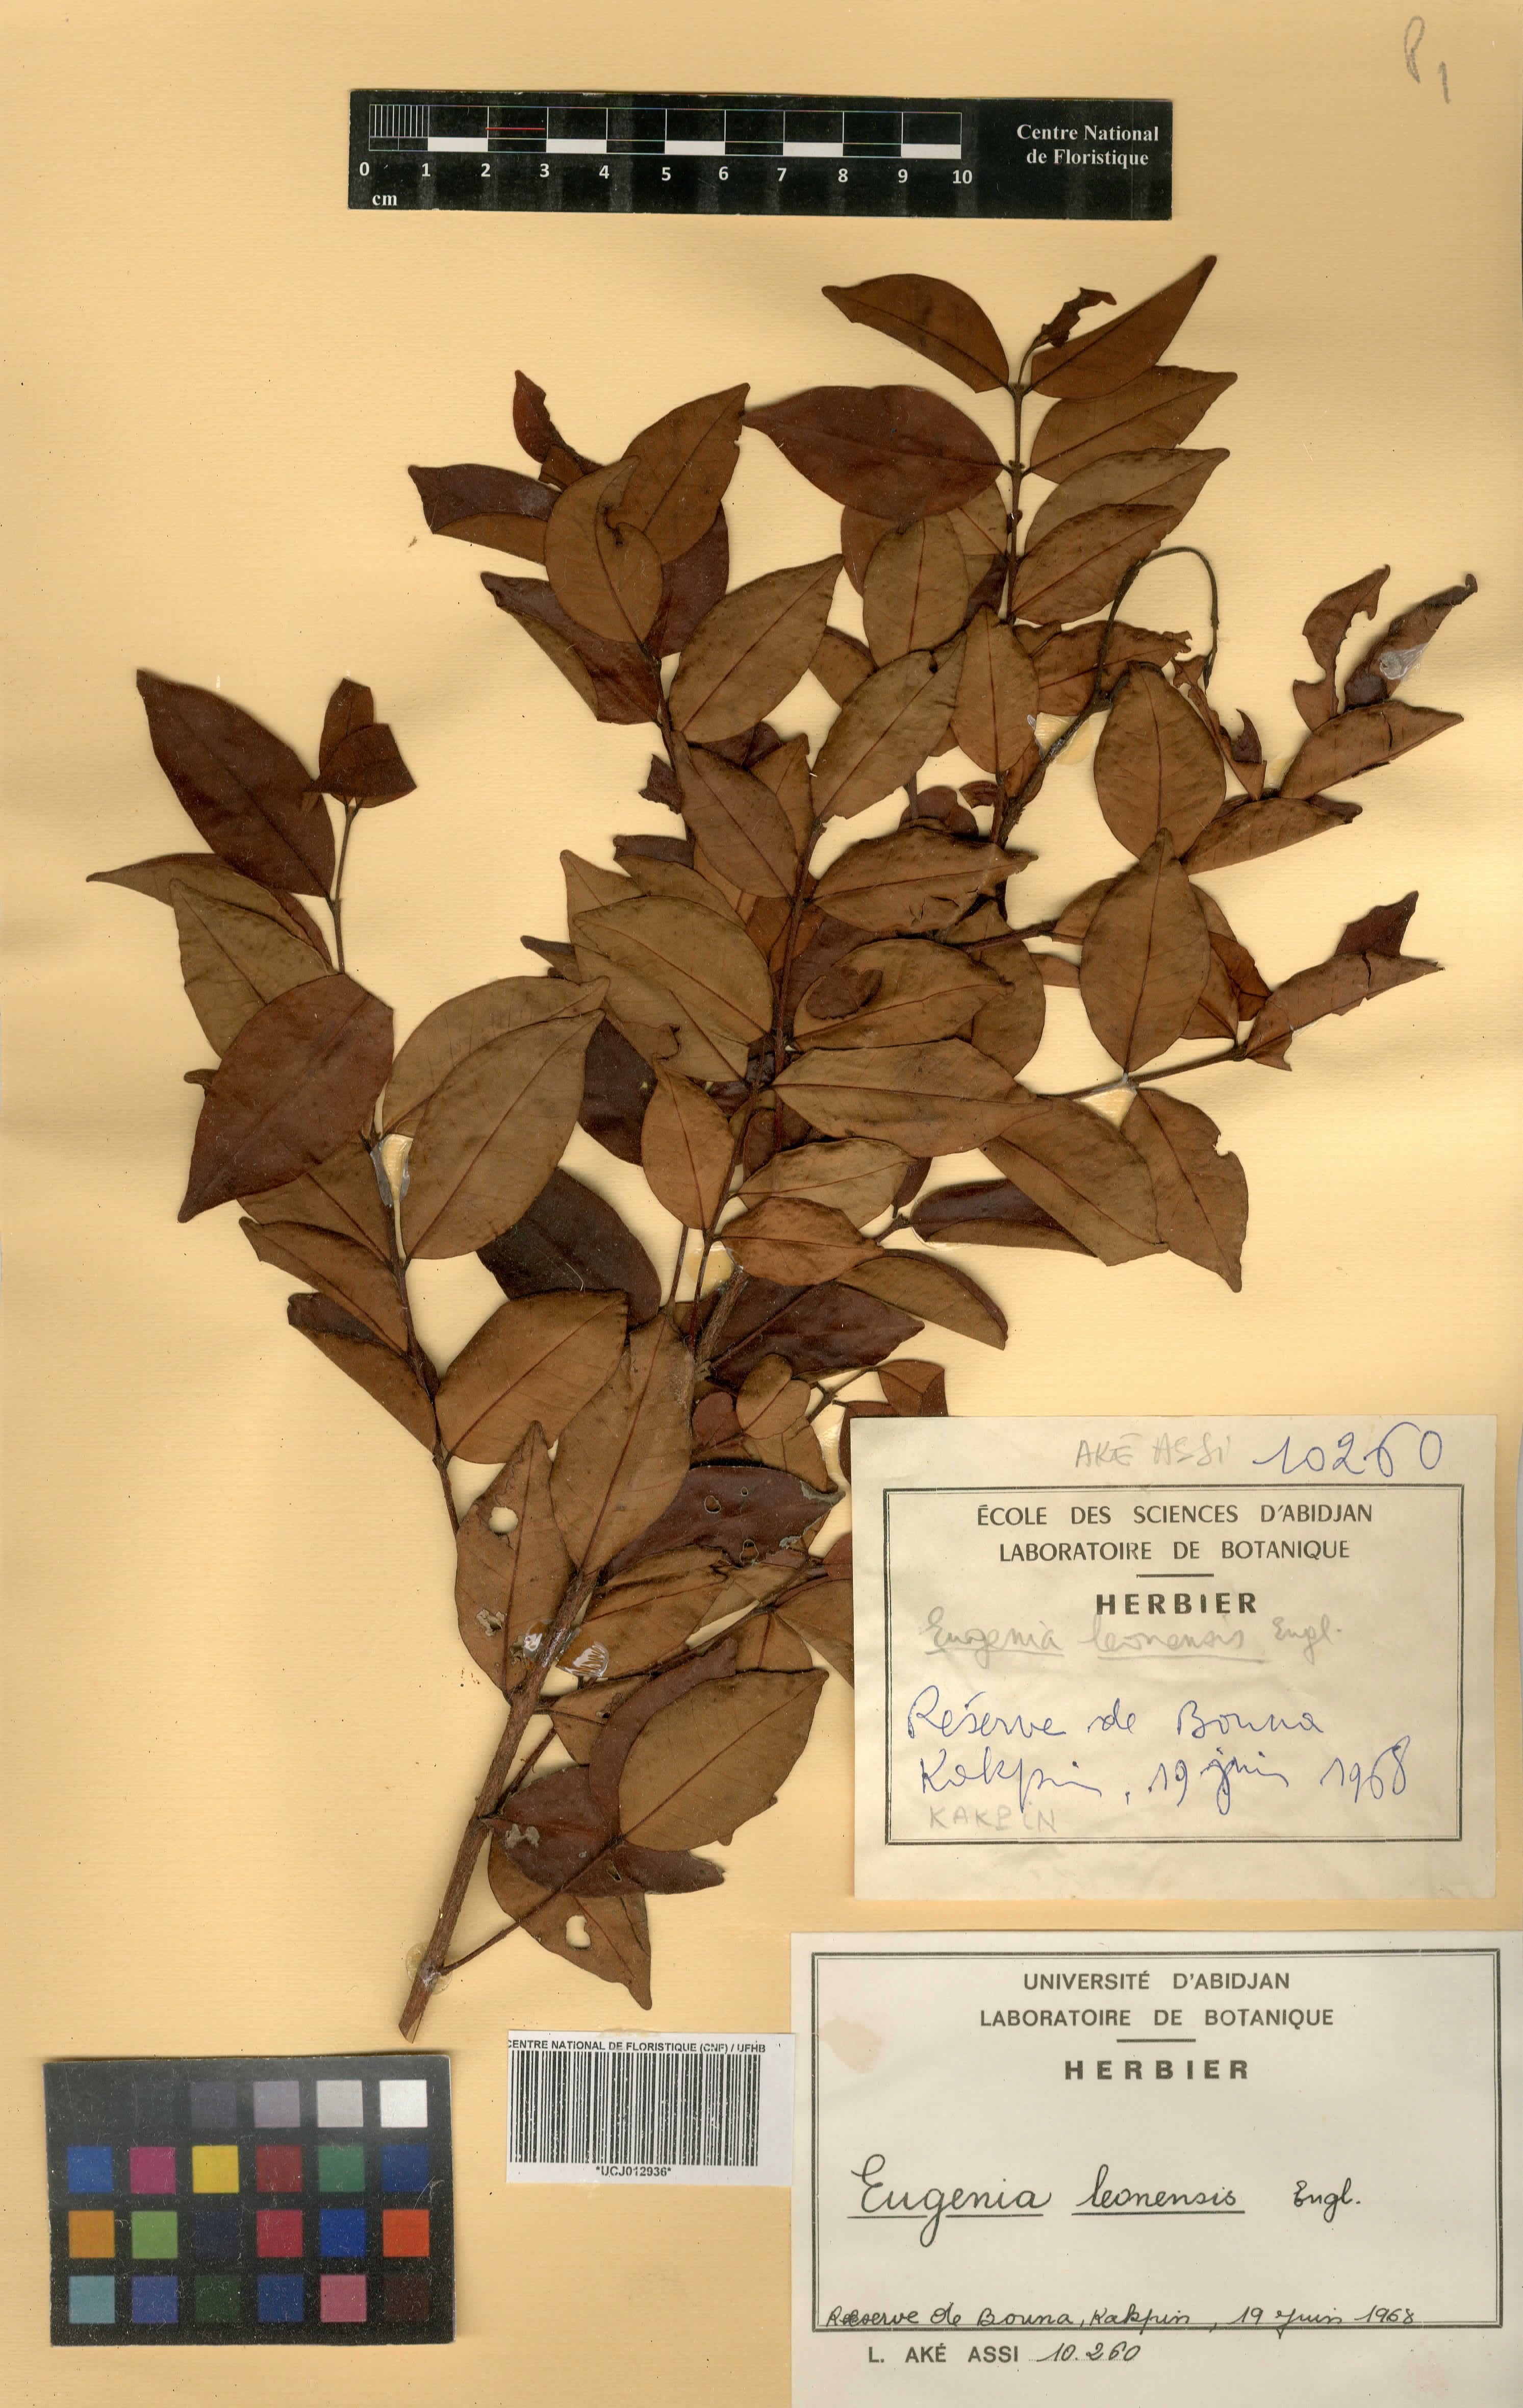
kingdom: Plantae
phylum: Tracheophyta
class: Magnoliopsida
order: Myrtales
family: Myrtaceae
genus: Eugenia
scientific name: Eugenia fernandopoana
